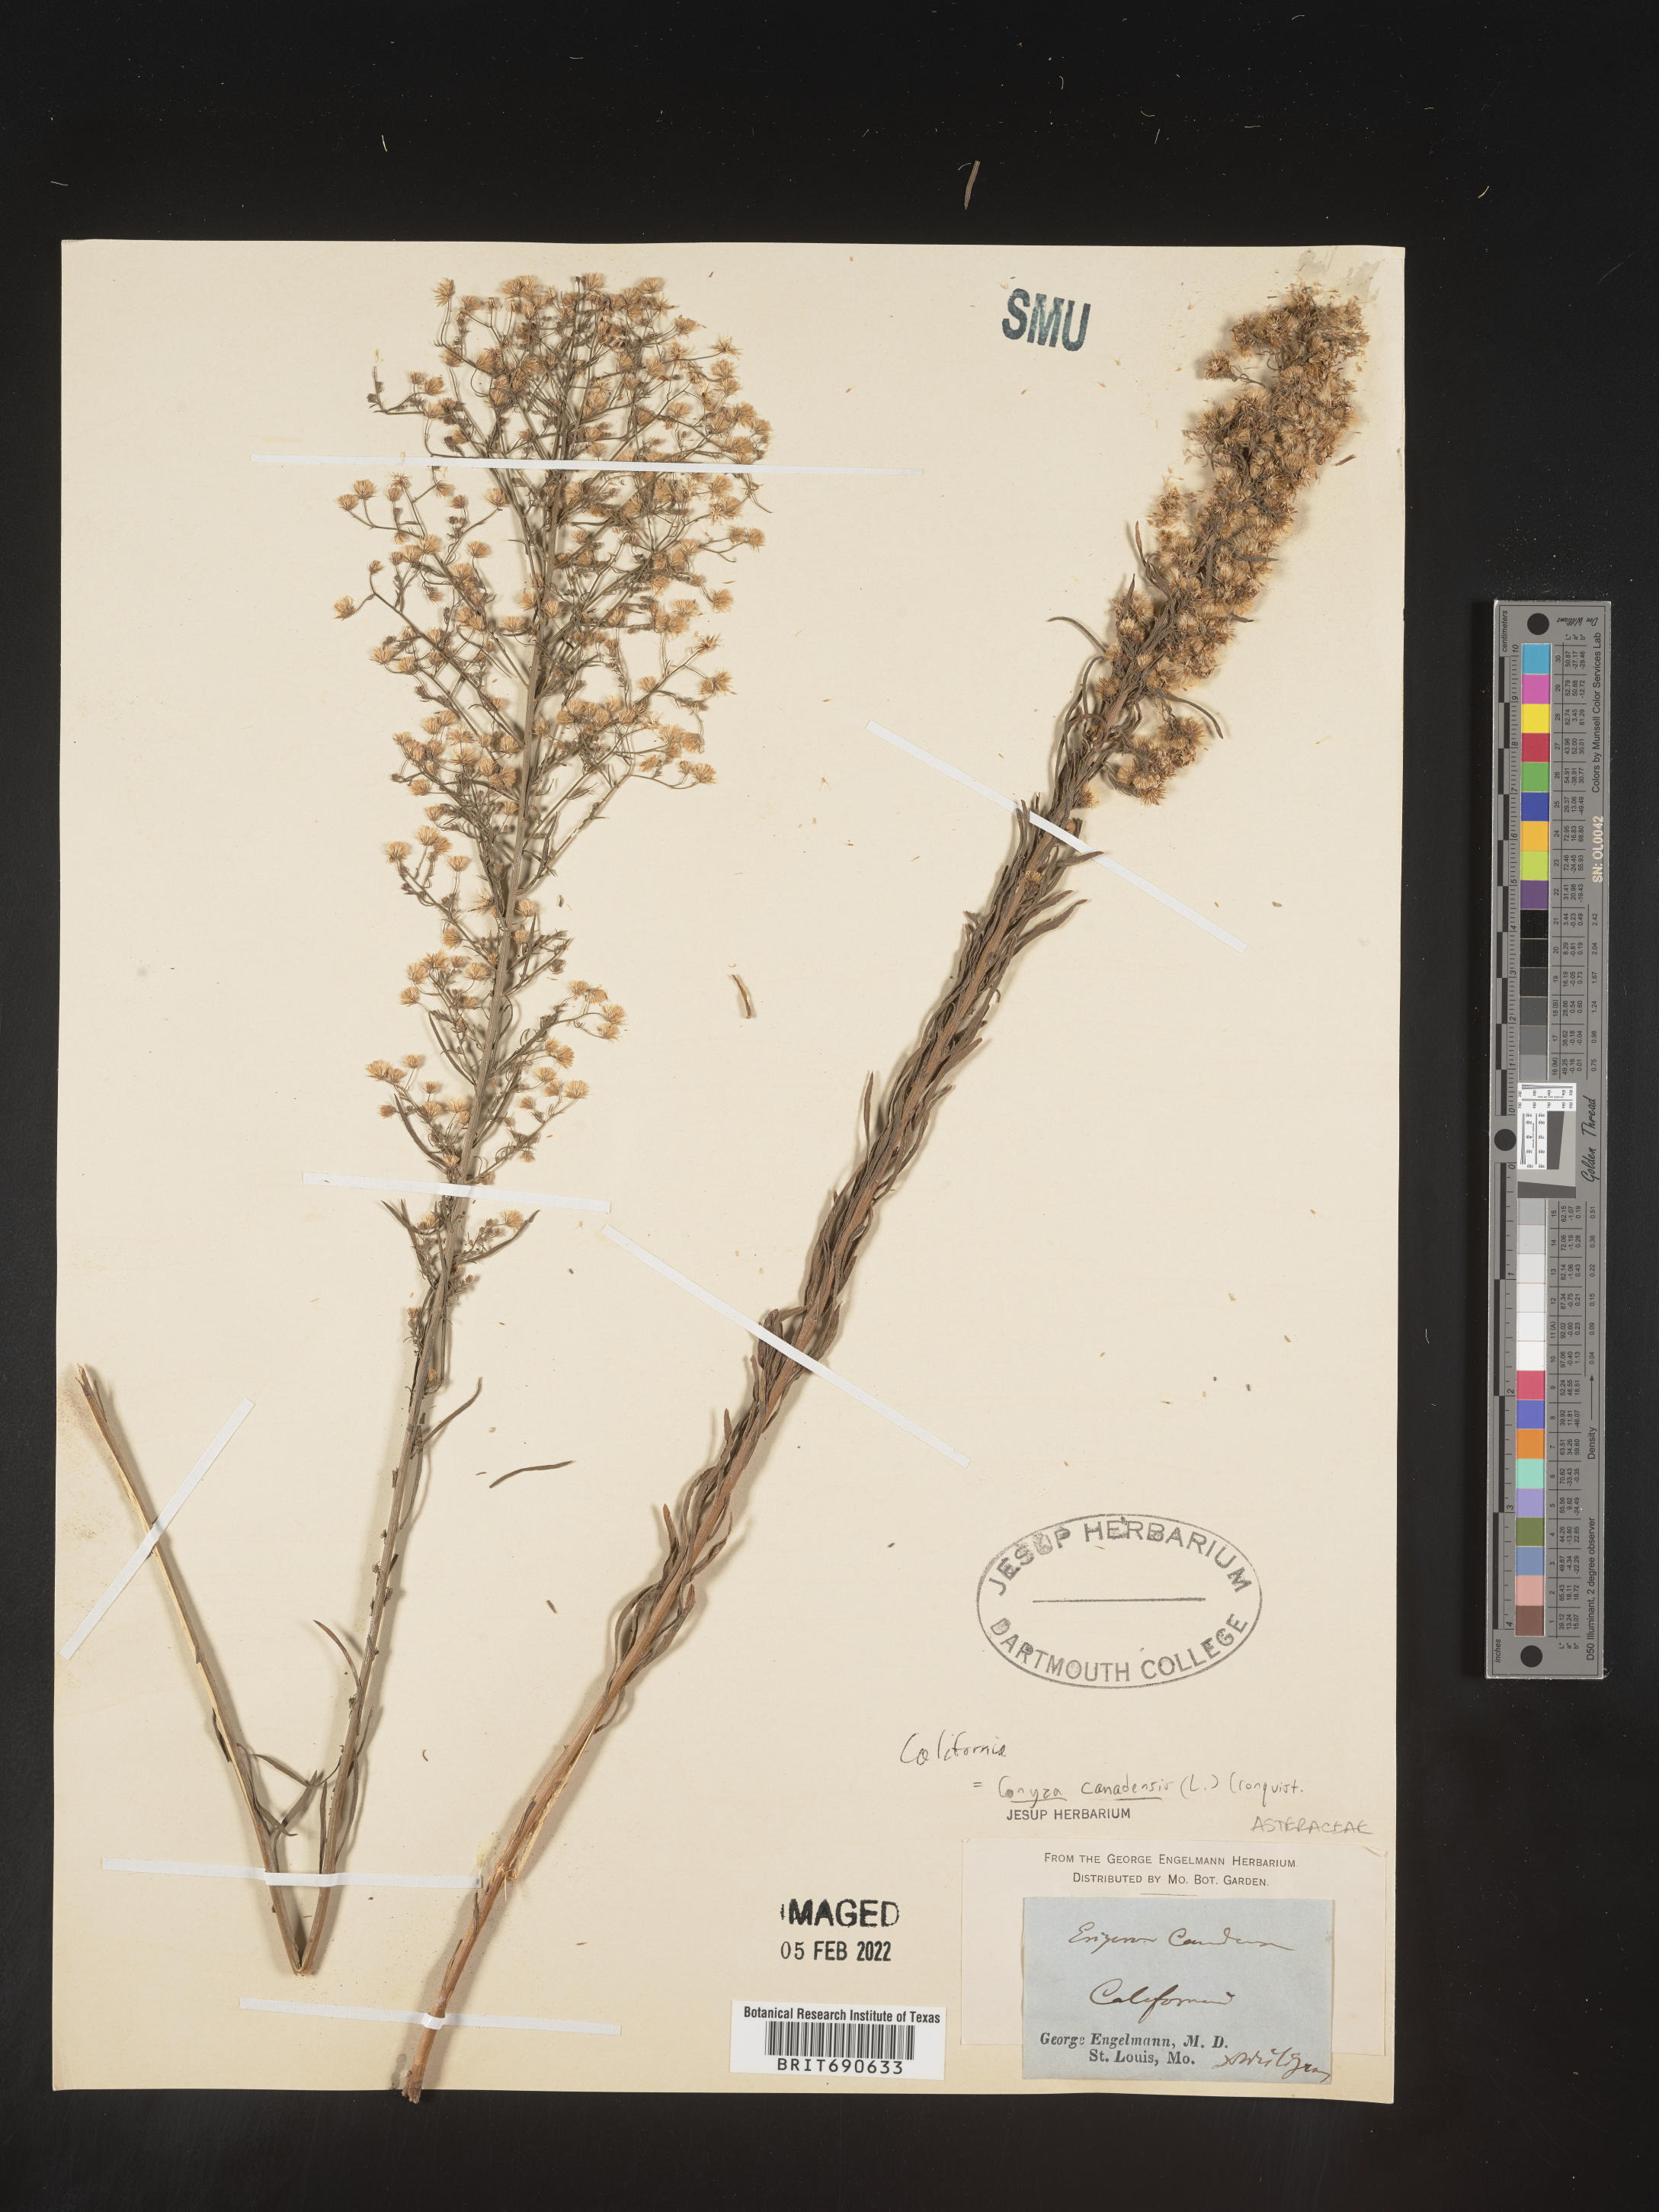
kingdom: Plantae
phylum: Tracheophyta
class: Magnoliopsida
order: Asterales
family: Asteraceae
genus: Erigeron
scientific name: Erigeron canadensis
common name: Canadian fleabane
